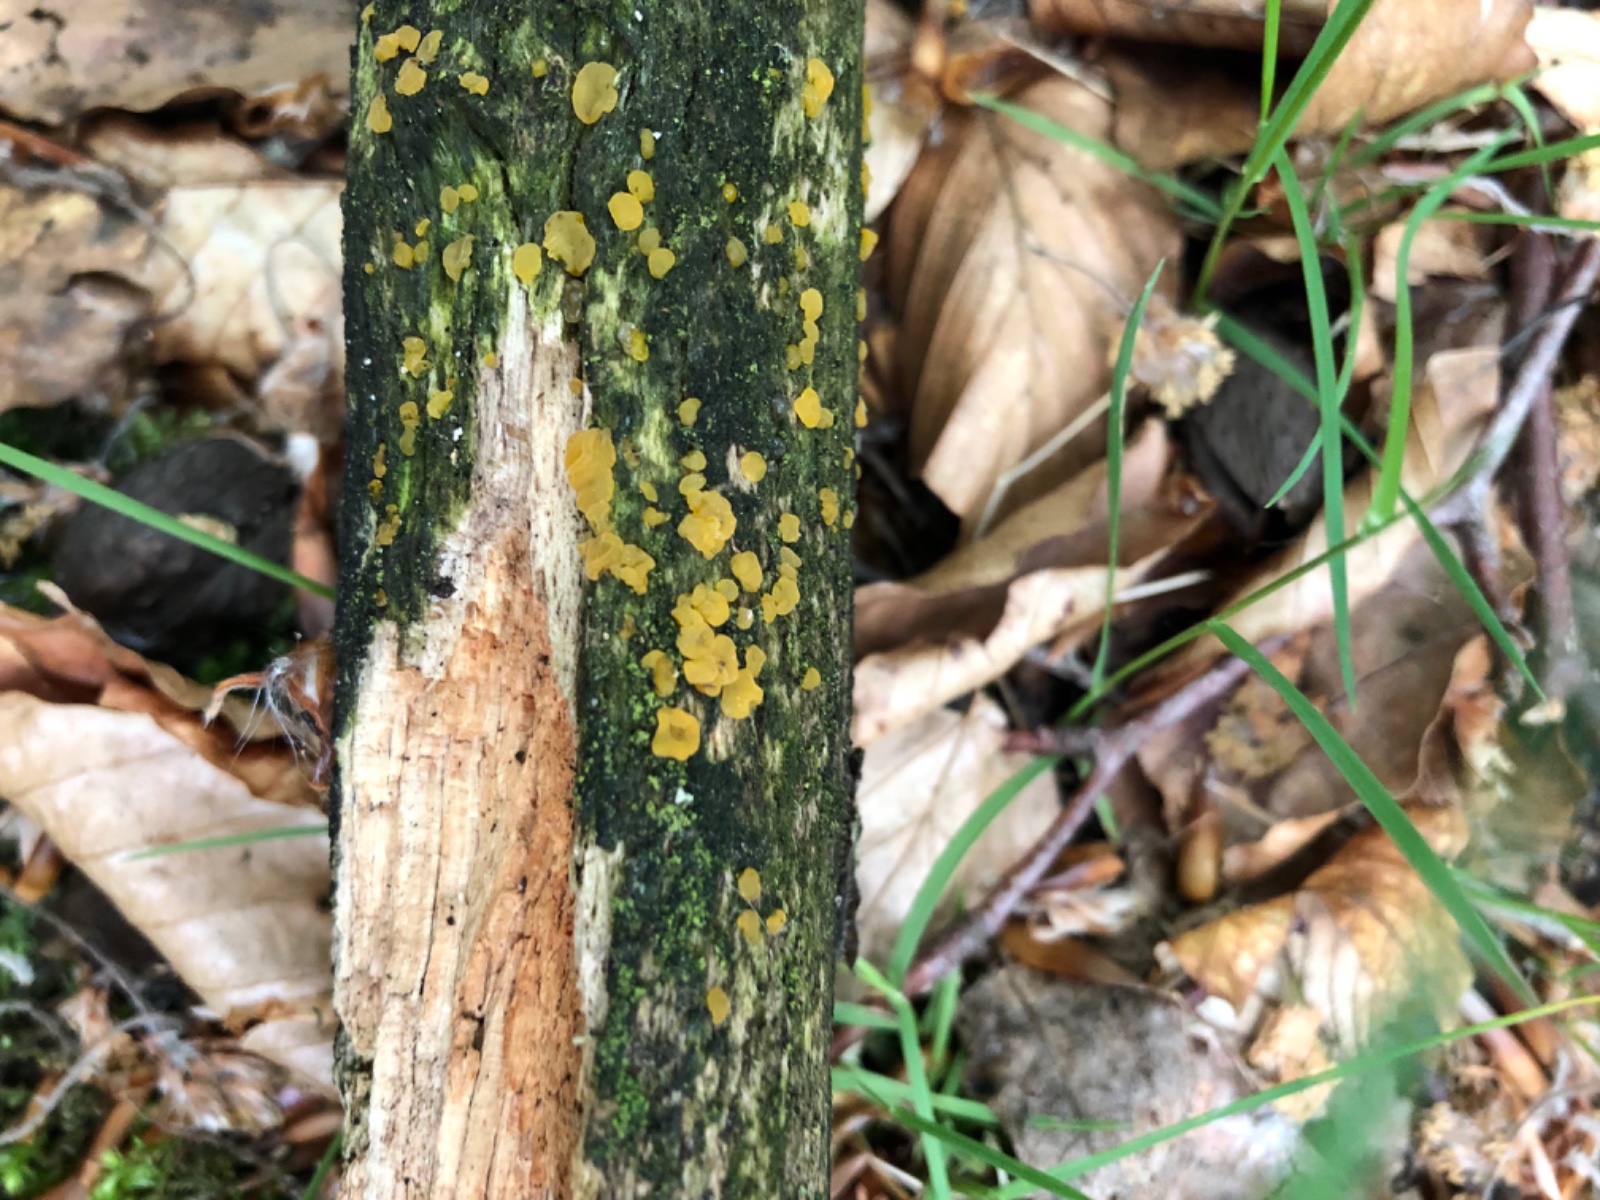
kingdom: Fungi
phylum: Basidiomycota
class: Dacrymycetes
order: Dacrymycetales
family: Dacrymycetaceae
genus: Dacrymyces
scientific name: Dacrymyces
